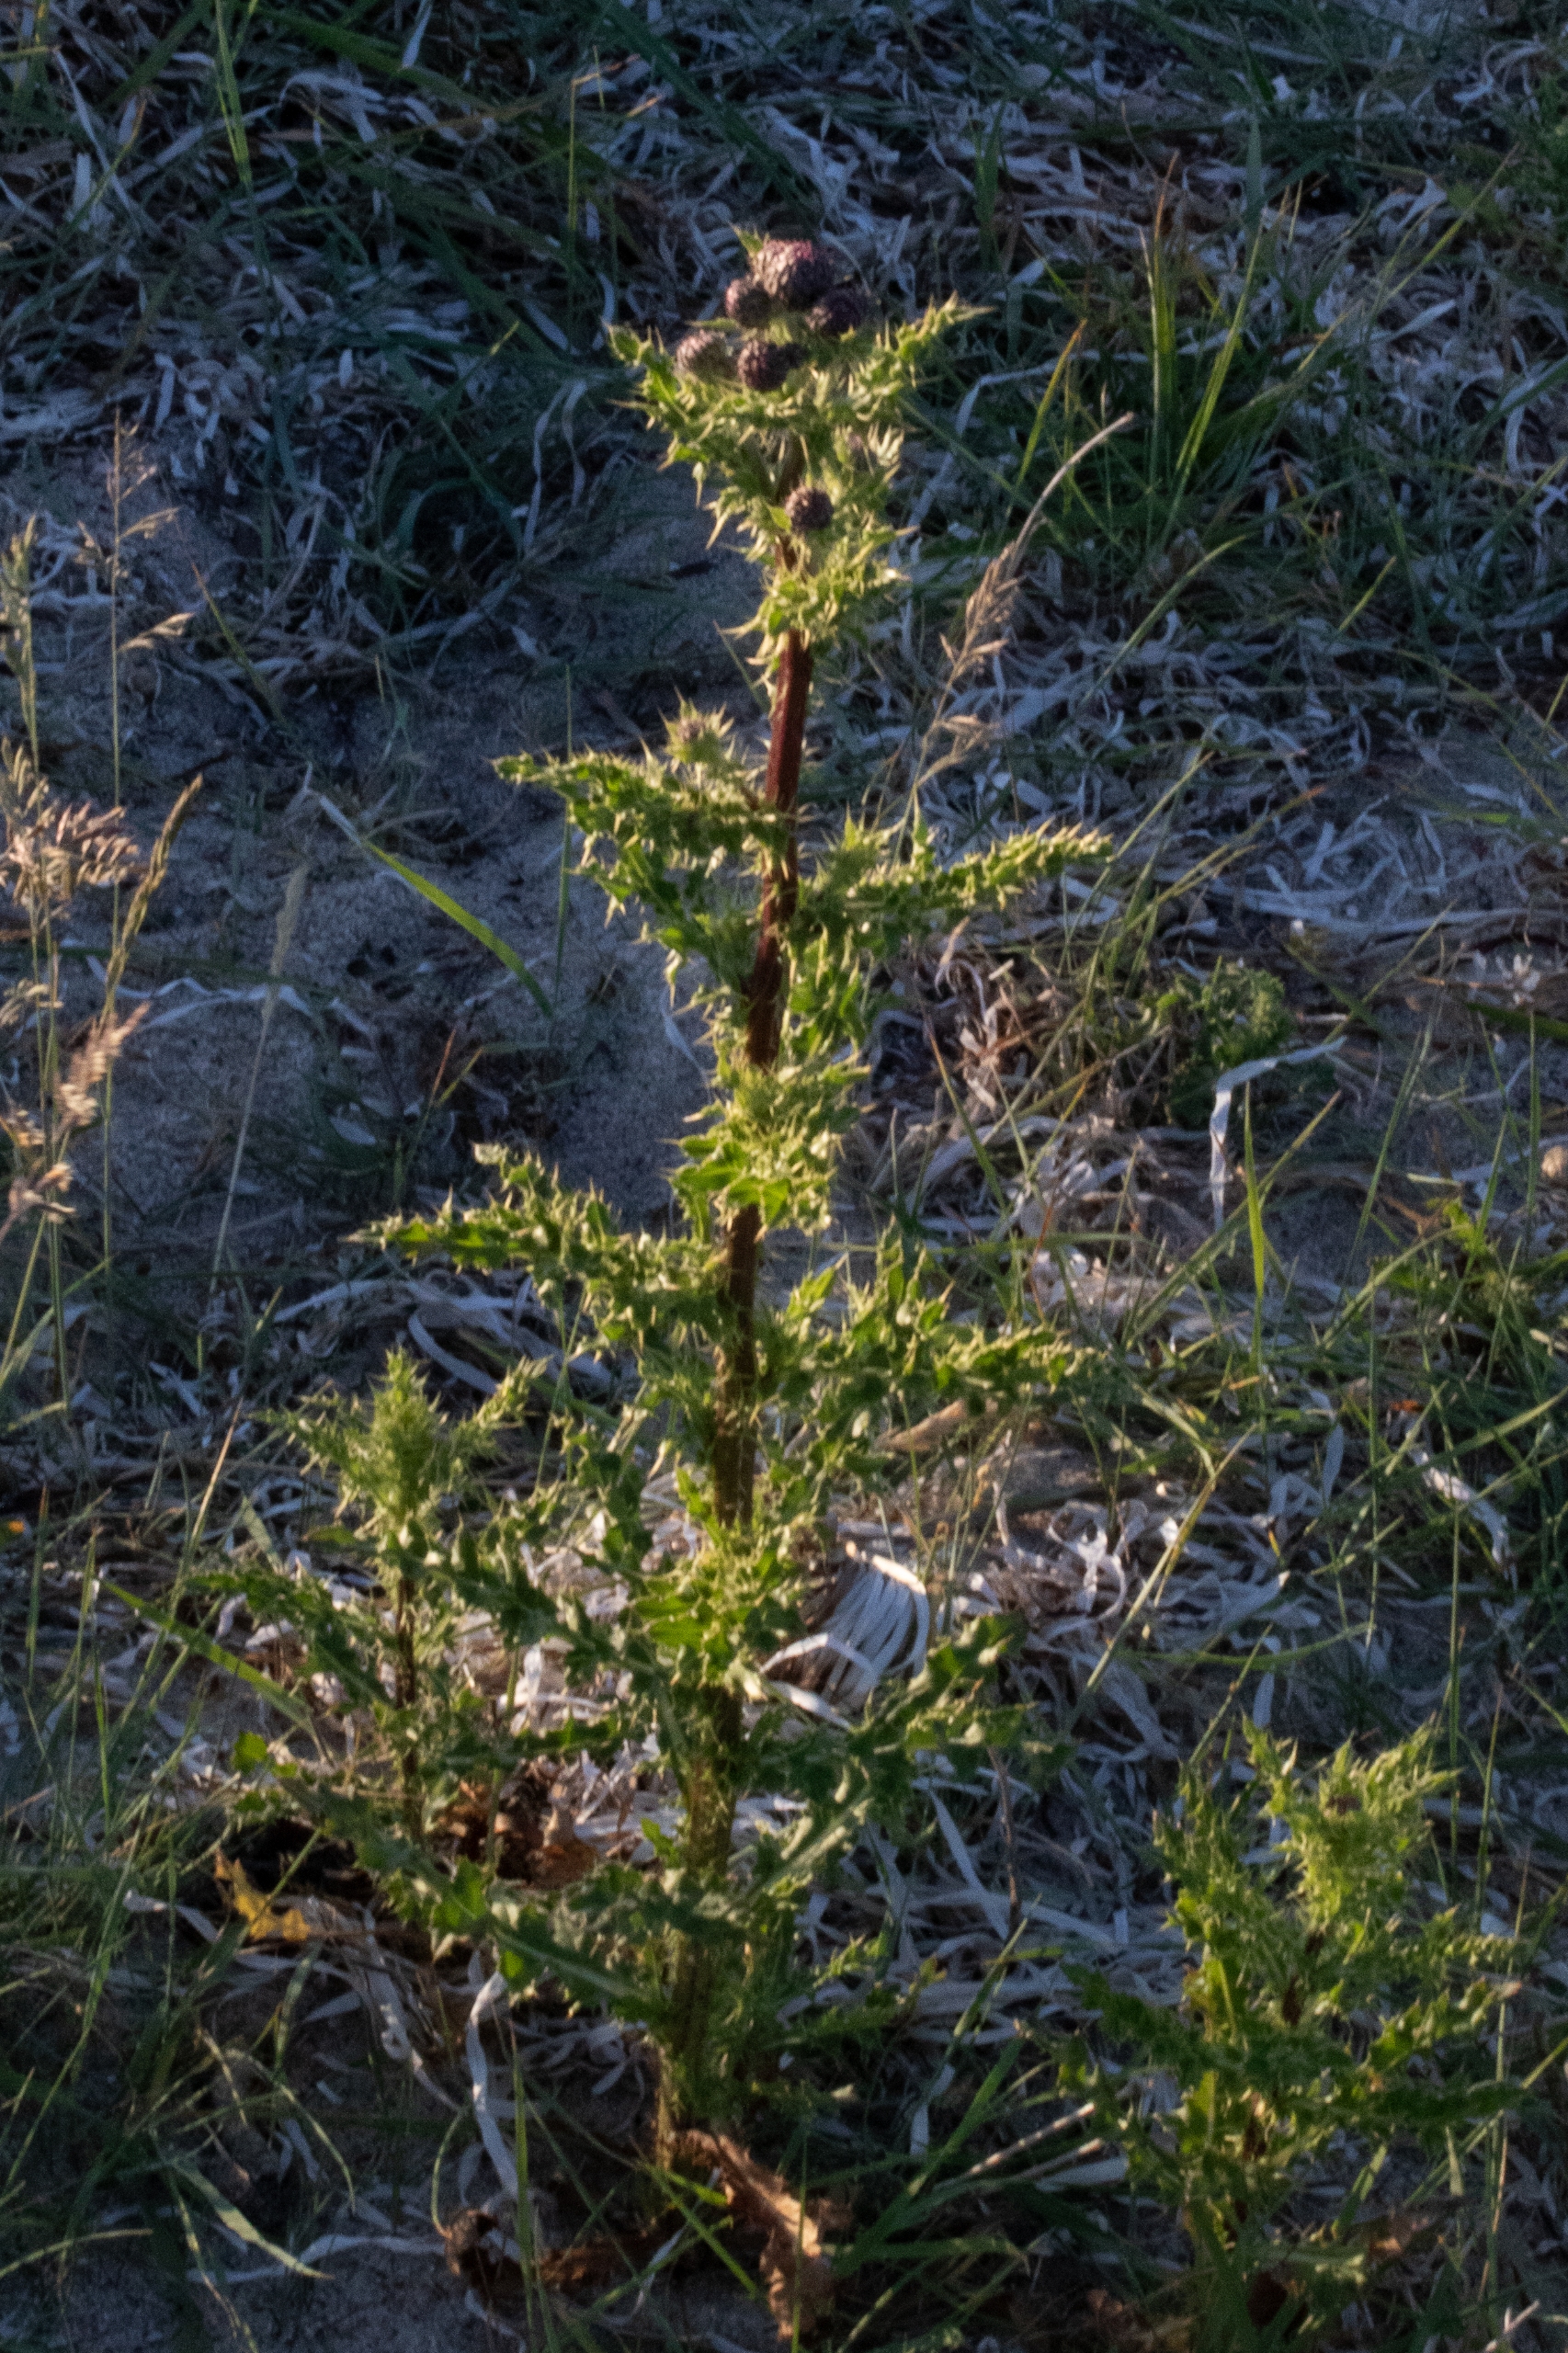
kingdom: Plantae
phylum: Tracheophyta
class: Magnoliopsida
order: Asterales
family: Asteraceae
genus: Cirsium
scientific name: Cirsium arvense
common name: Ager-tidsel
